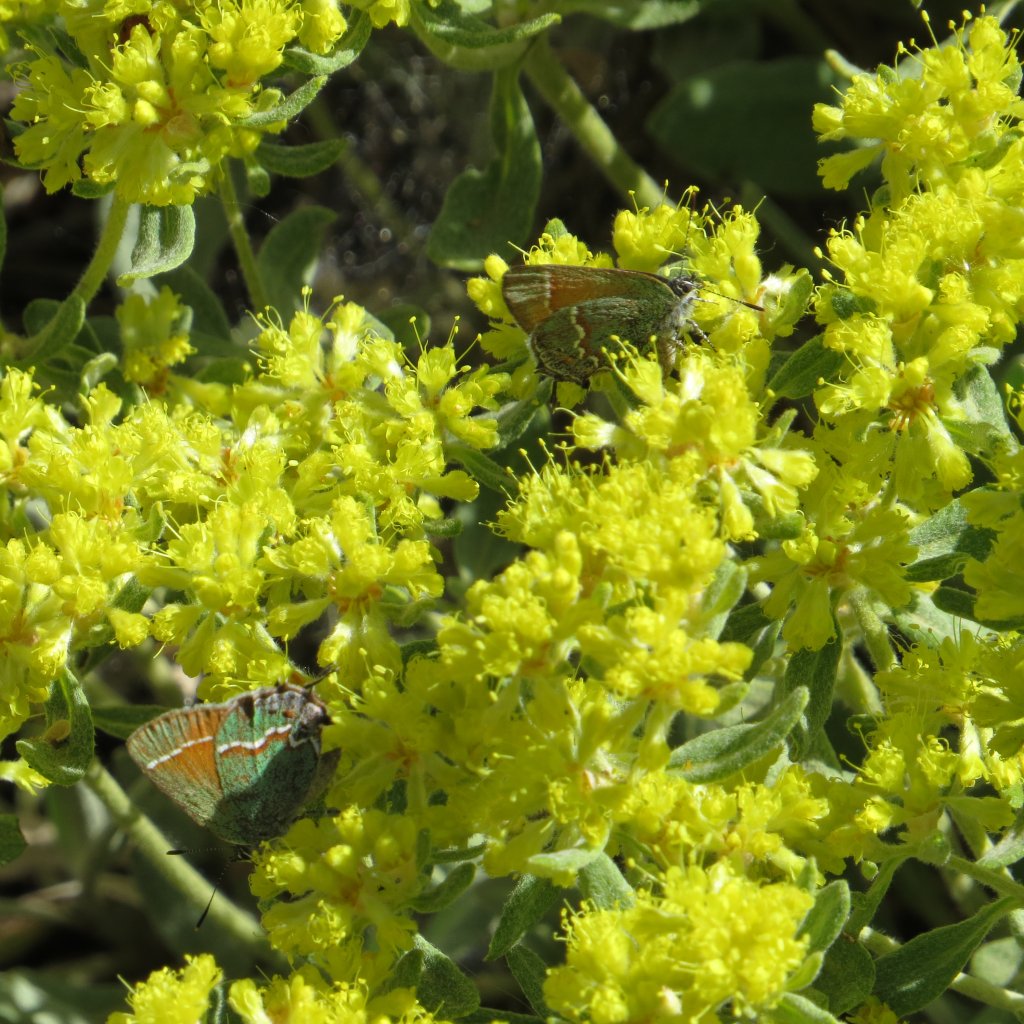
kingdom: Animalia
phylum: Arthropoda
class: Insecta
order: Lepidoptera
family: Lycaenidae
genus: Mitoura
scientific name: Mitoura gryneus
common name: Juniper Hairstreak
